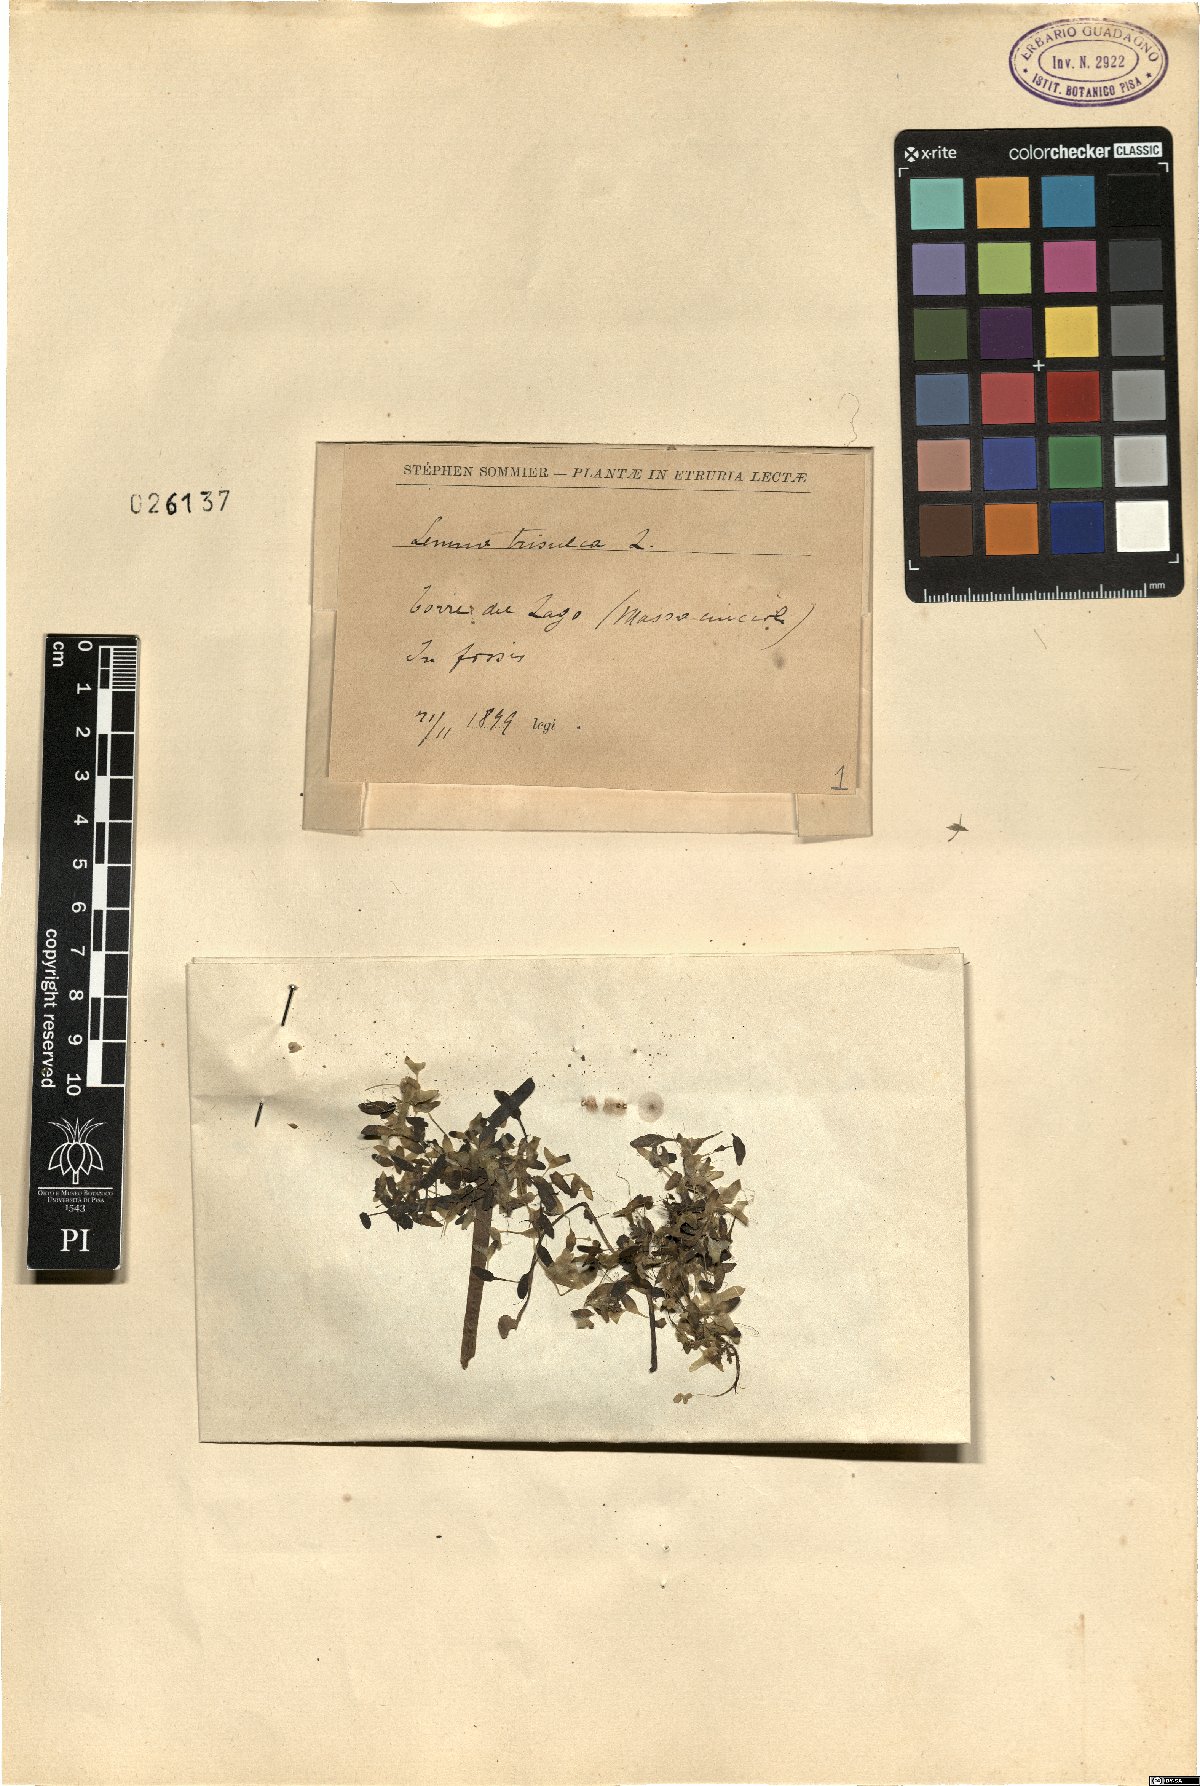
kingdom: Plantae
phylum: Tracheophyta
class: Liliopsida
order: Alismatales
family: Araceae
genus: Lemna
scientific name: Lemna trisulca
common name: Ivy-leaved duckweed
